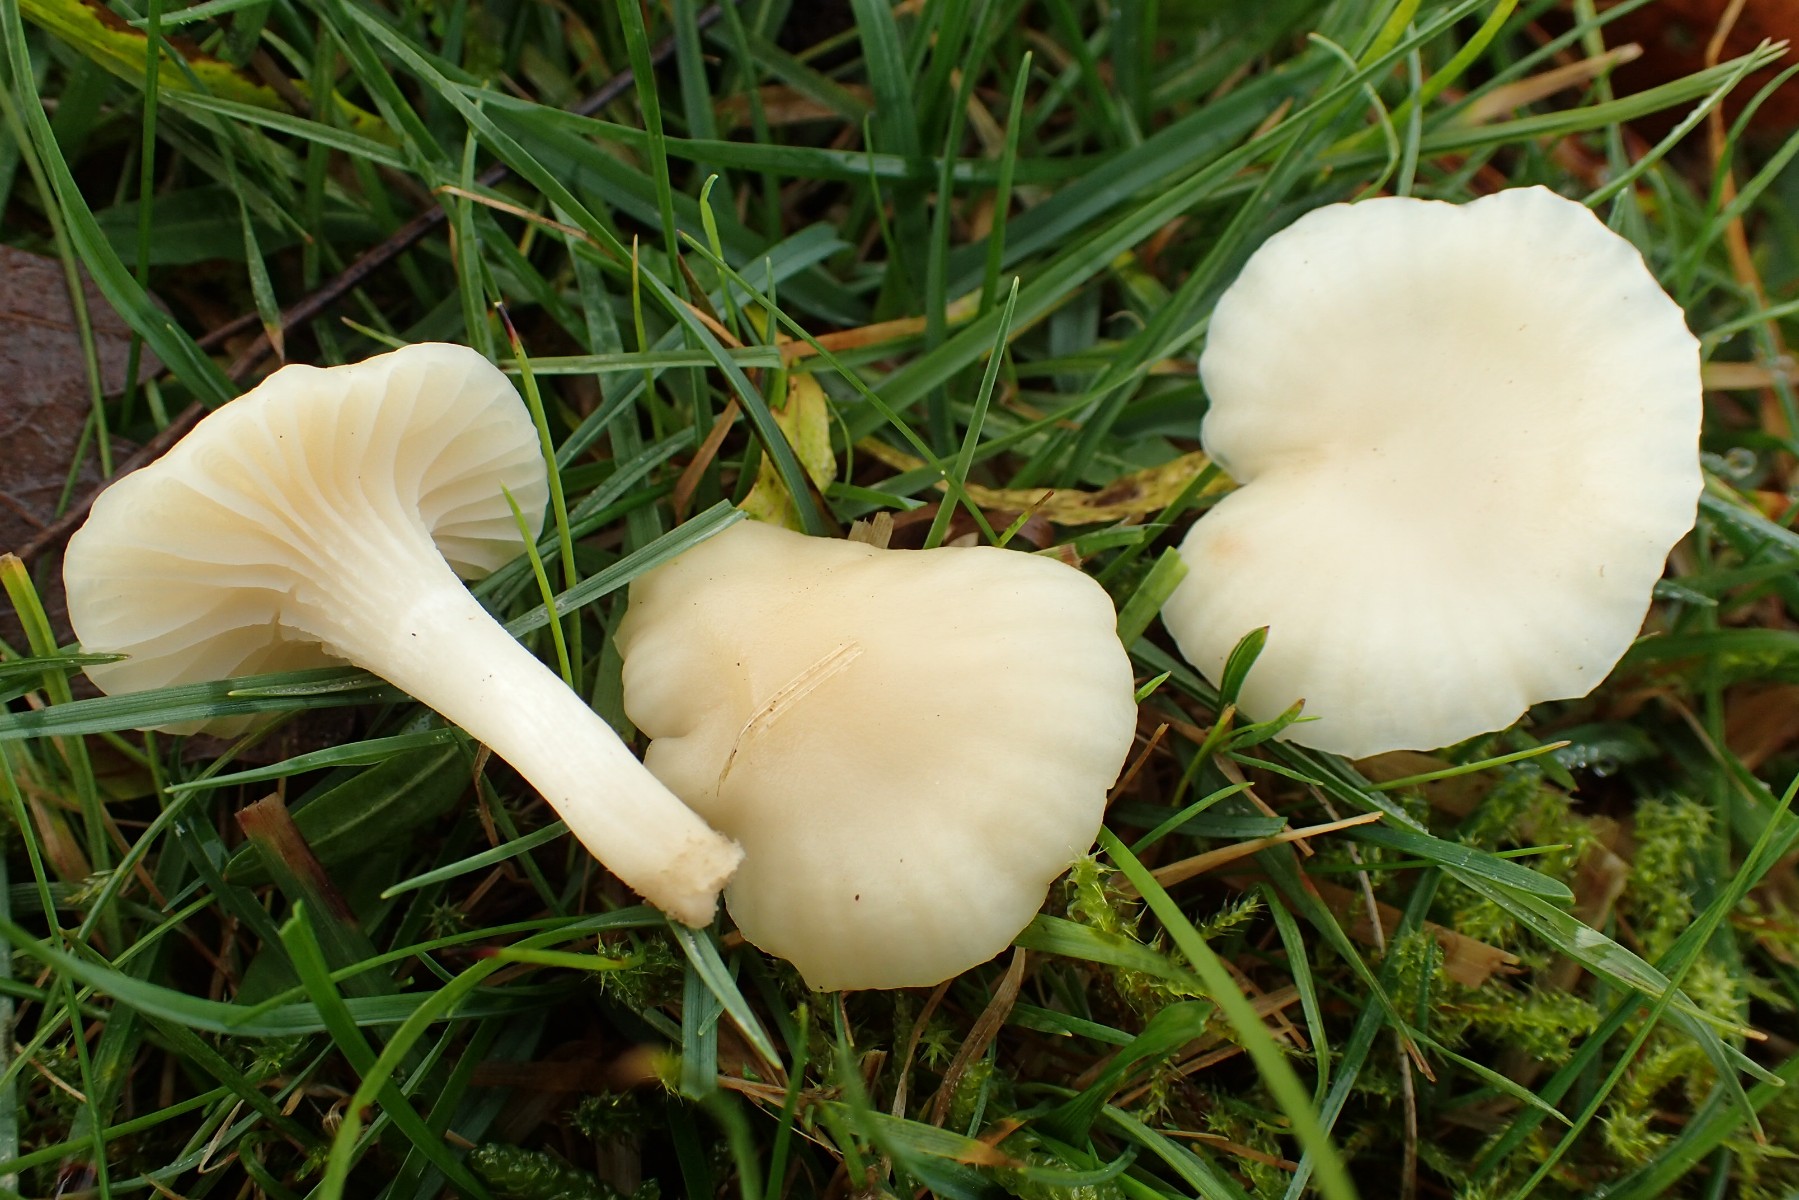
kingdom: Fungi
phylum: Basidiomycota
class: Agaricomycetes
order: Agaricales
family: Hygrophoraceae
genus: Cuphophyllus
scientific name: Cuphophyllus virgineus
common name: snehvid vokshat
